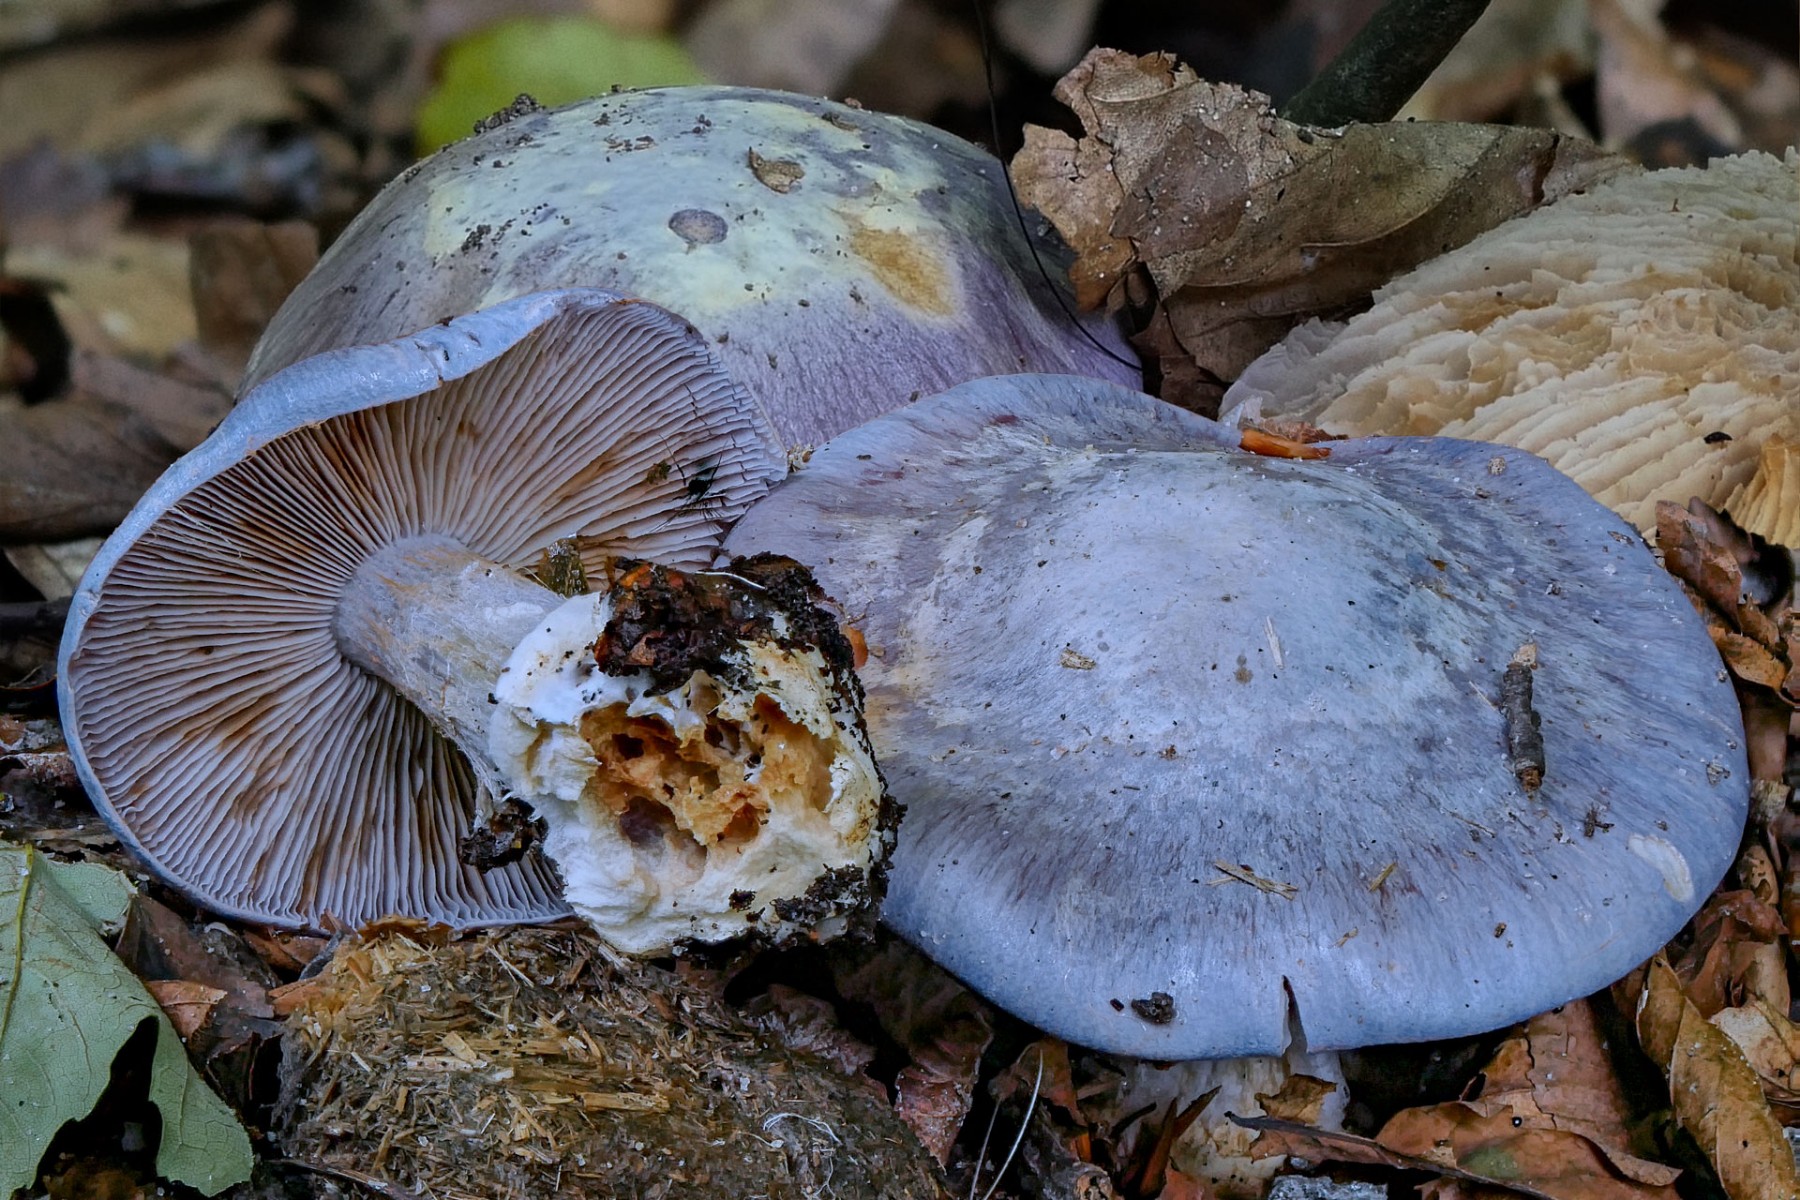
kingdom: Fungi
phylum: Basidiomycota
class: Agaricomycetes
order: Agaricales
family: Cortinariaceae
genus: Cortinarius
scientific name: Cortinarius caerulescens
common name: blåkødet slørhat
